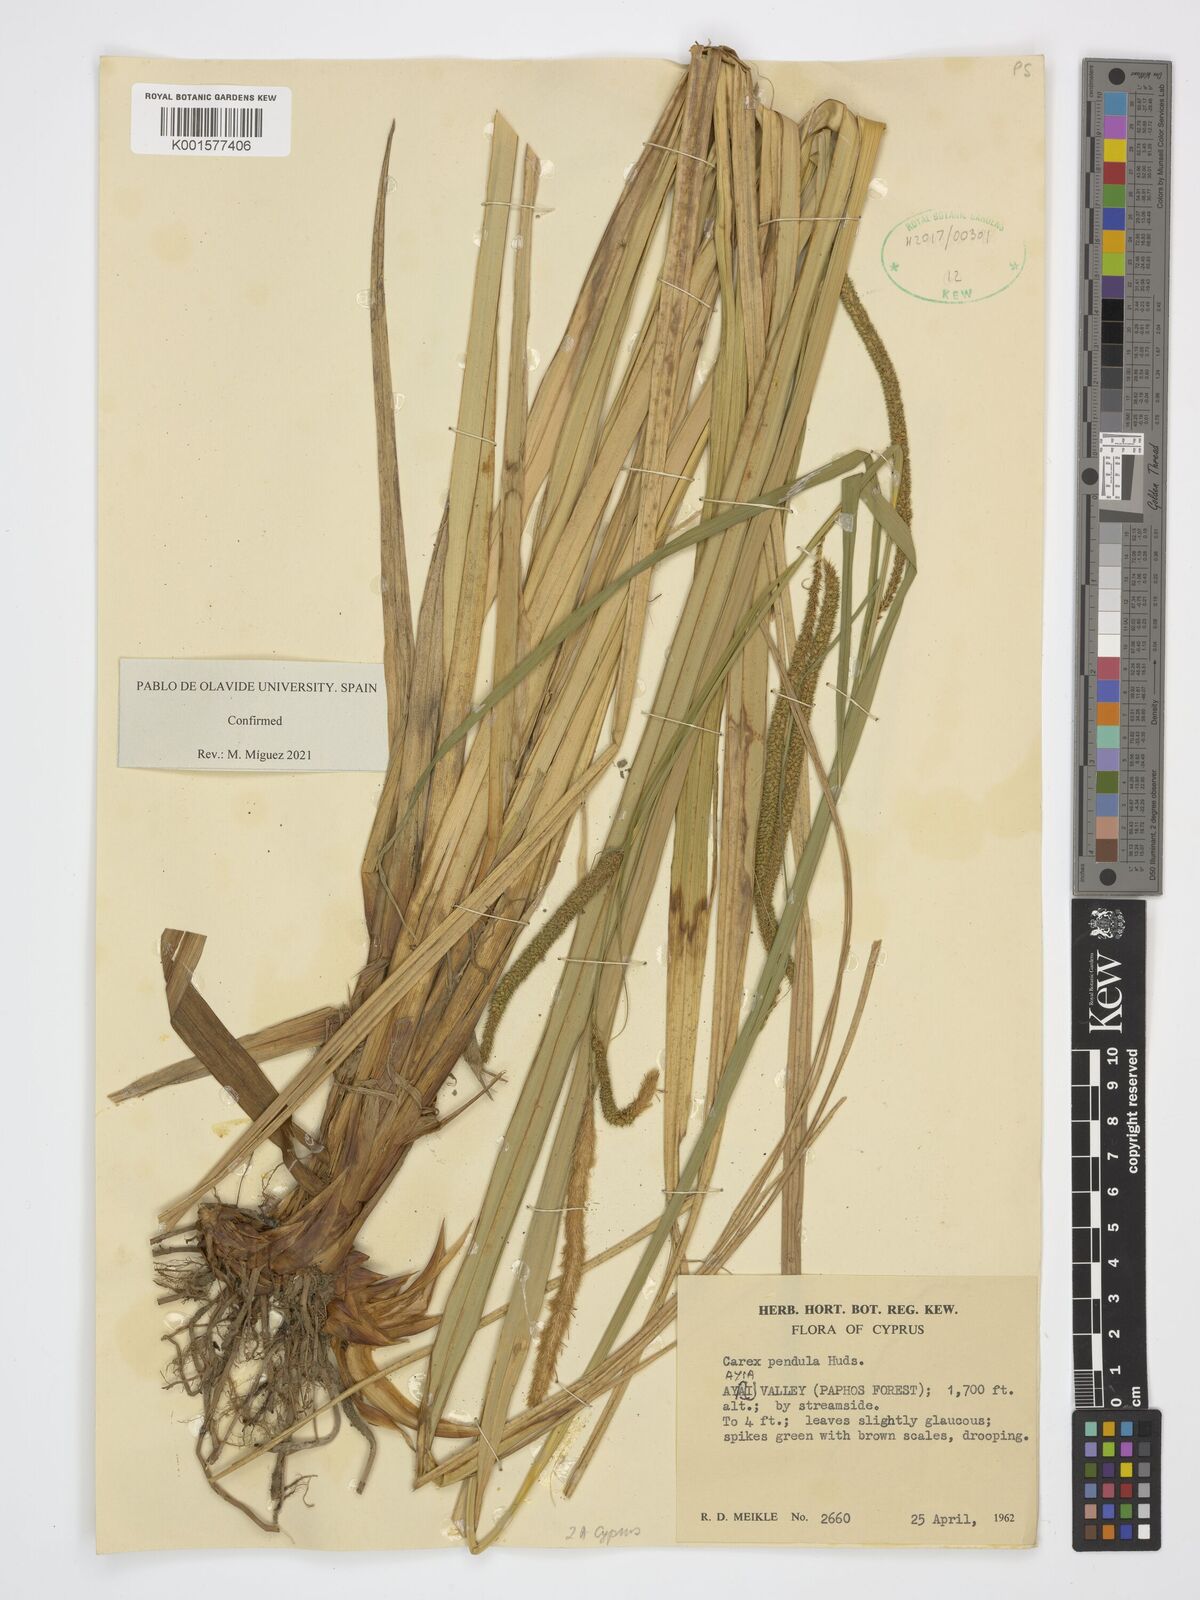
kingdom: Plantae
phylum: Tracheophyta
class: Liliopsida
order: Poales
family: Cyperaceae
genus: Carex
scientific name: Carex pendula
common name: Pendulous sedge
